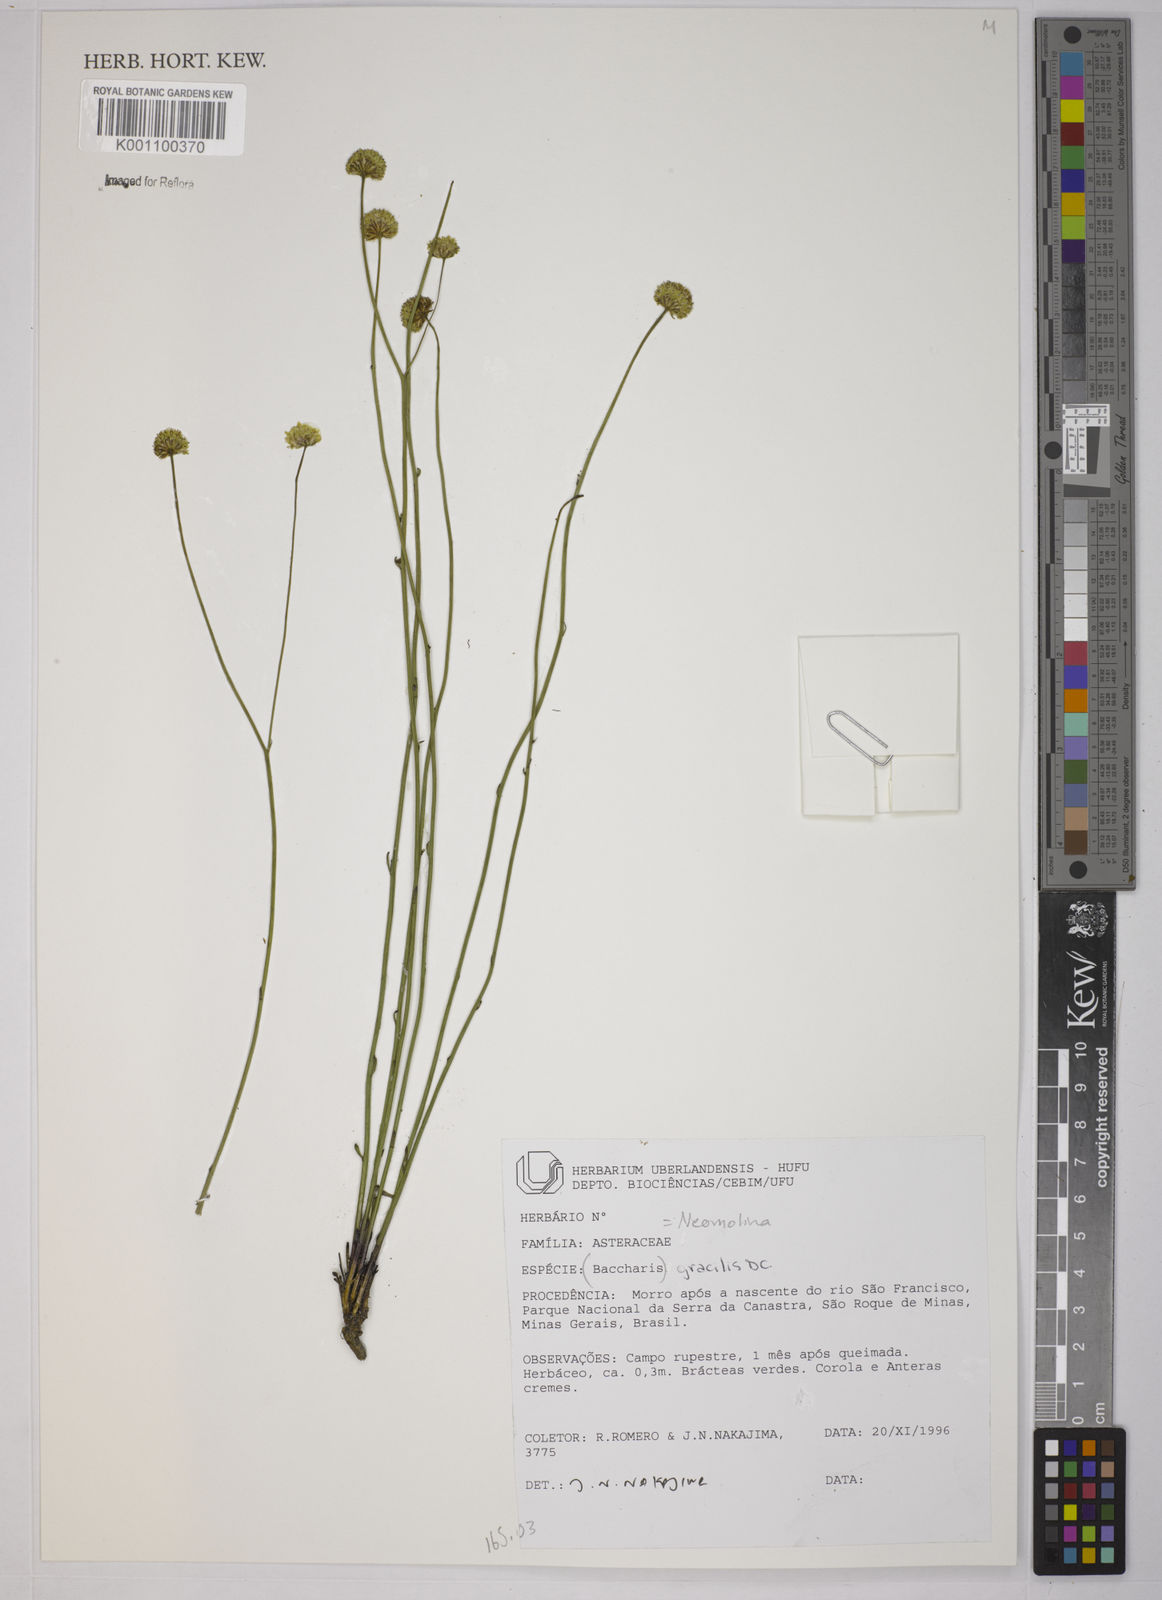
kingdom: Plantae
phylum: Tracheophyta
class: Magnoliopsida
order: Asterales
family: Asteraceae
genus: Baccharis
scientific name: Baccharis gracilis
